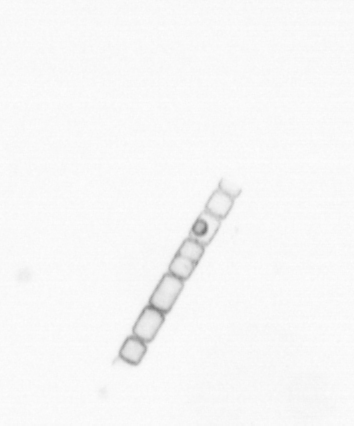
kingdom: Chromista
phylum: Ochrophyta
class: Bacillariophyceae
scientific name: Bacillariophyceae
